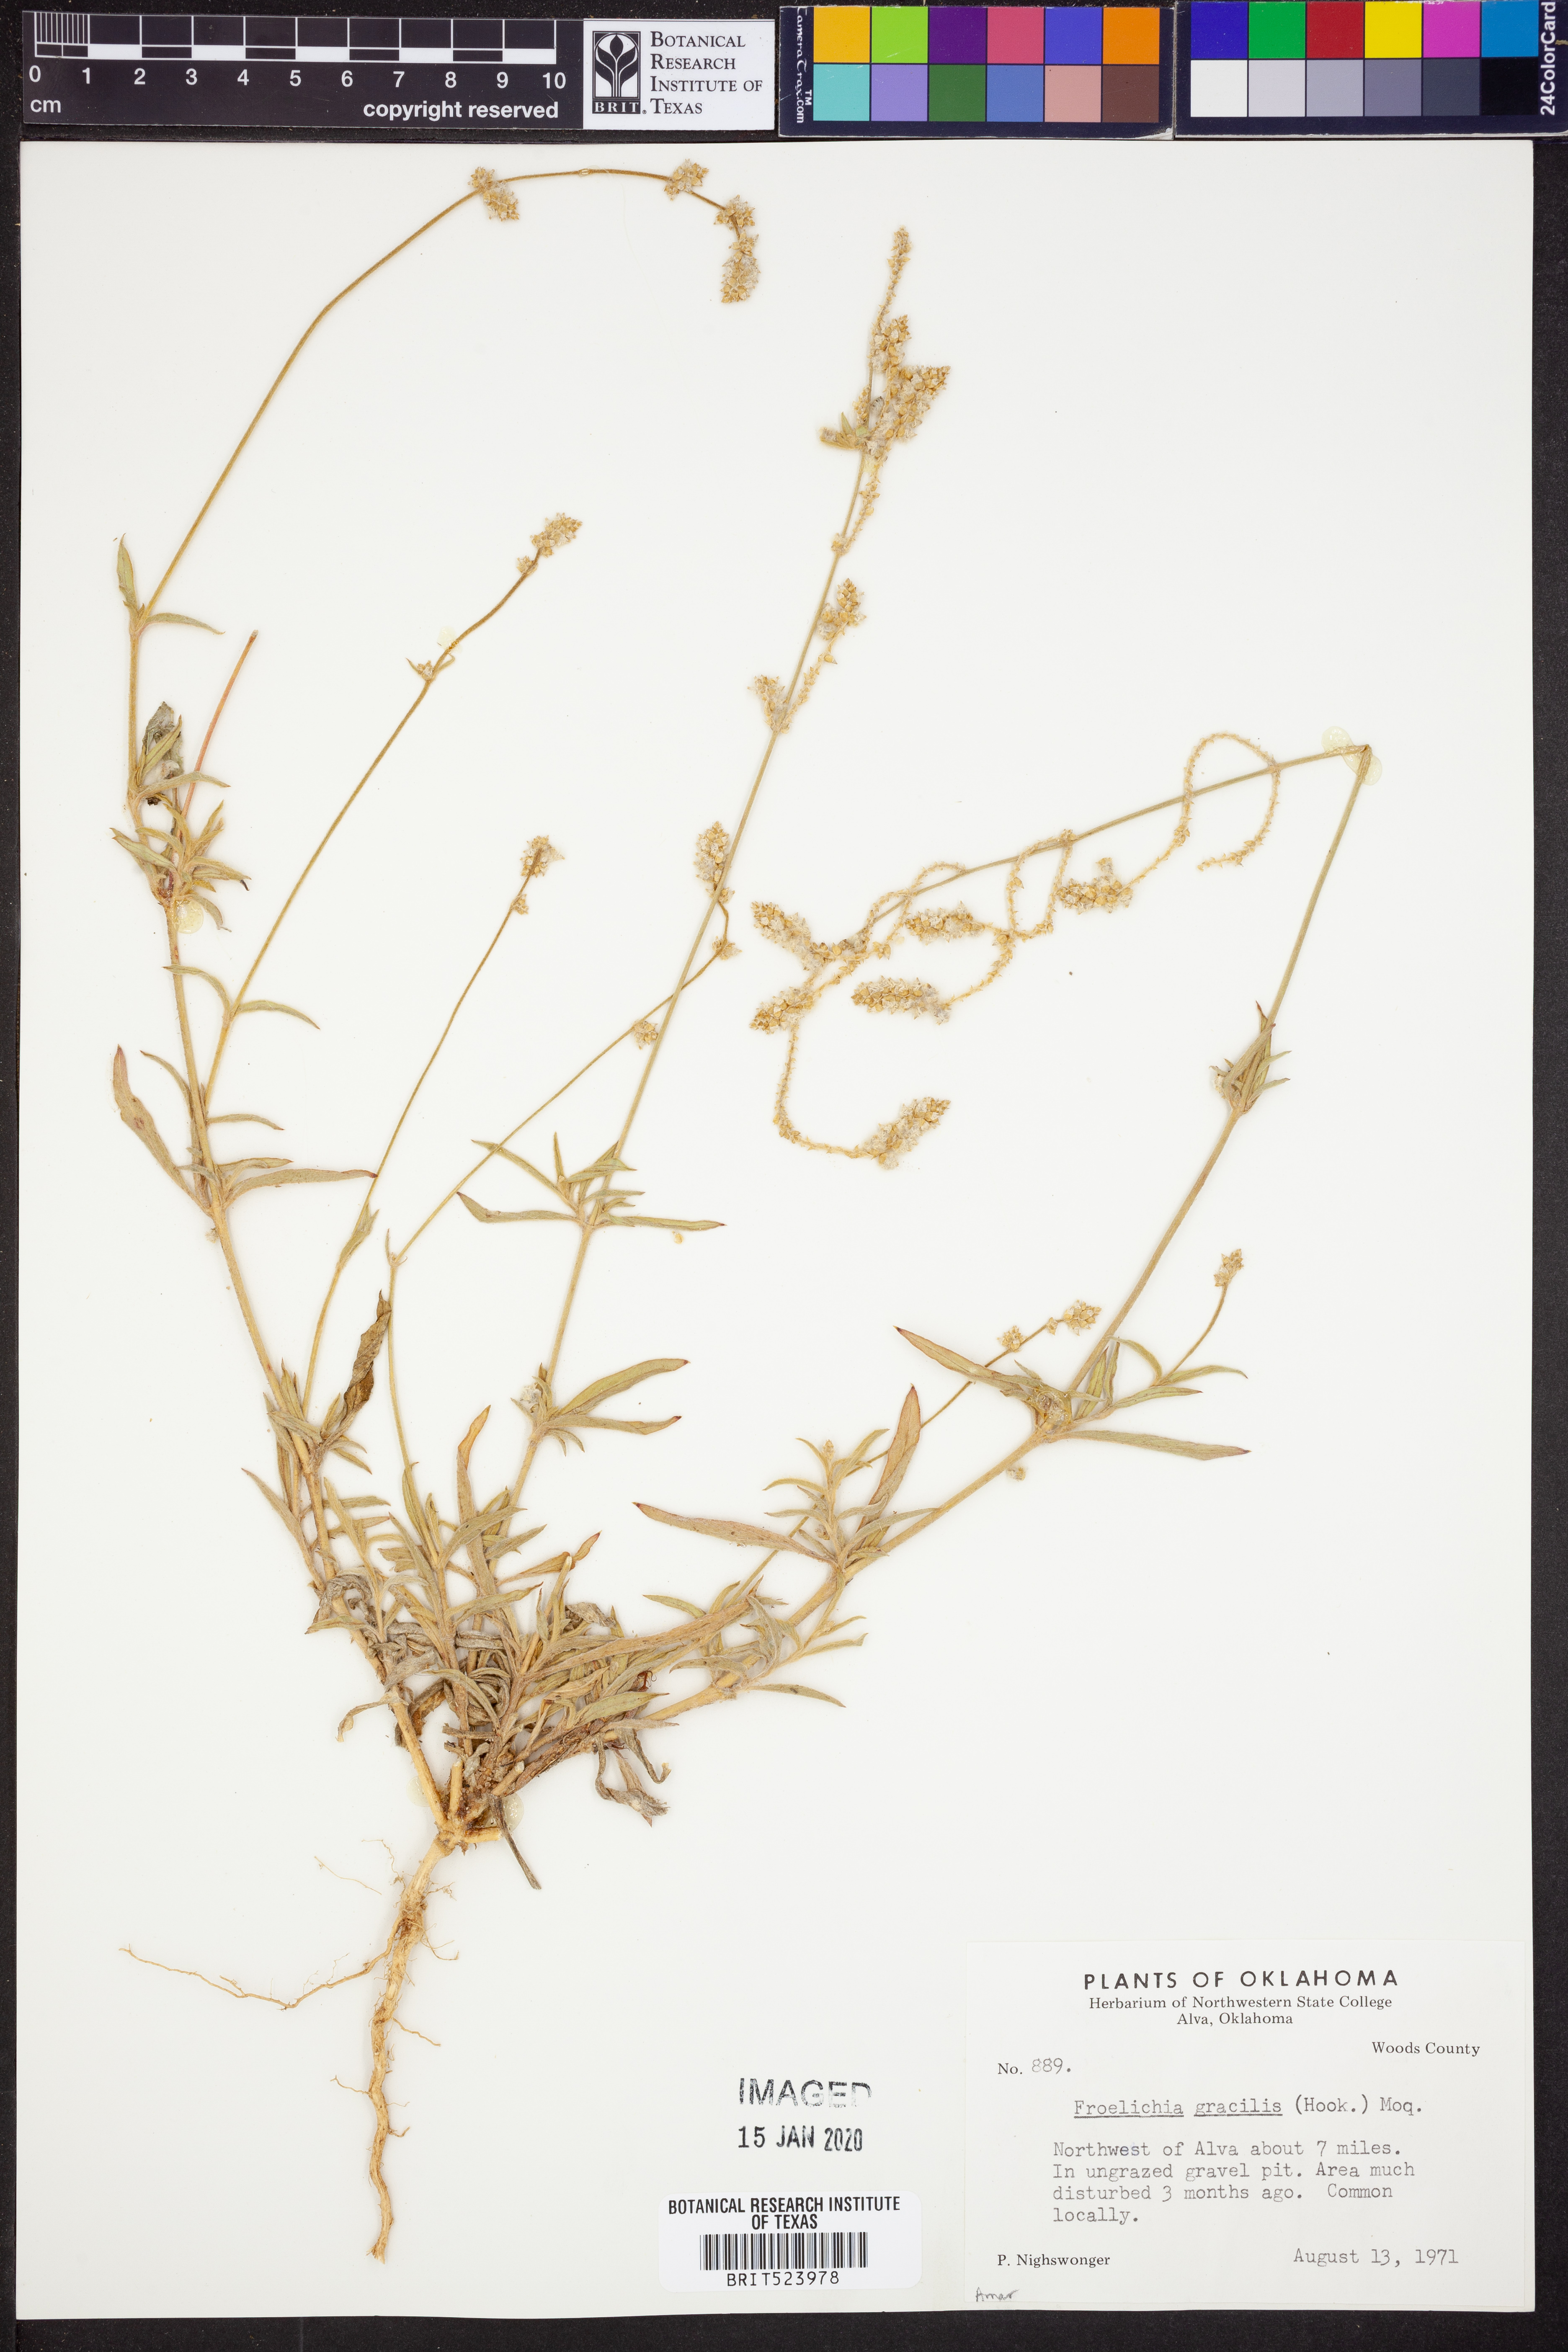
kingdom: Plantae
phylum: Tracheophyta
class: Magnoliopsida
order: Caryophyllales
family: Amaranthaceae
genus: Froelichia
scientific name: Froelichia gracilis
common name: Slender cottonweed
